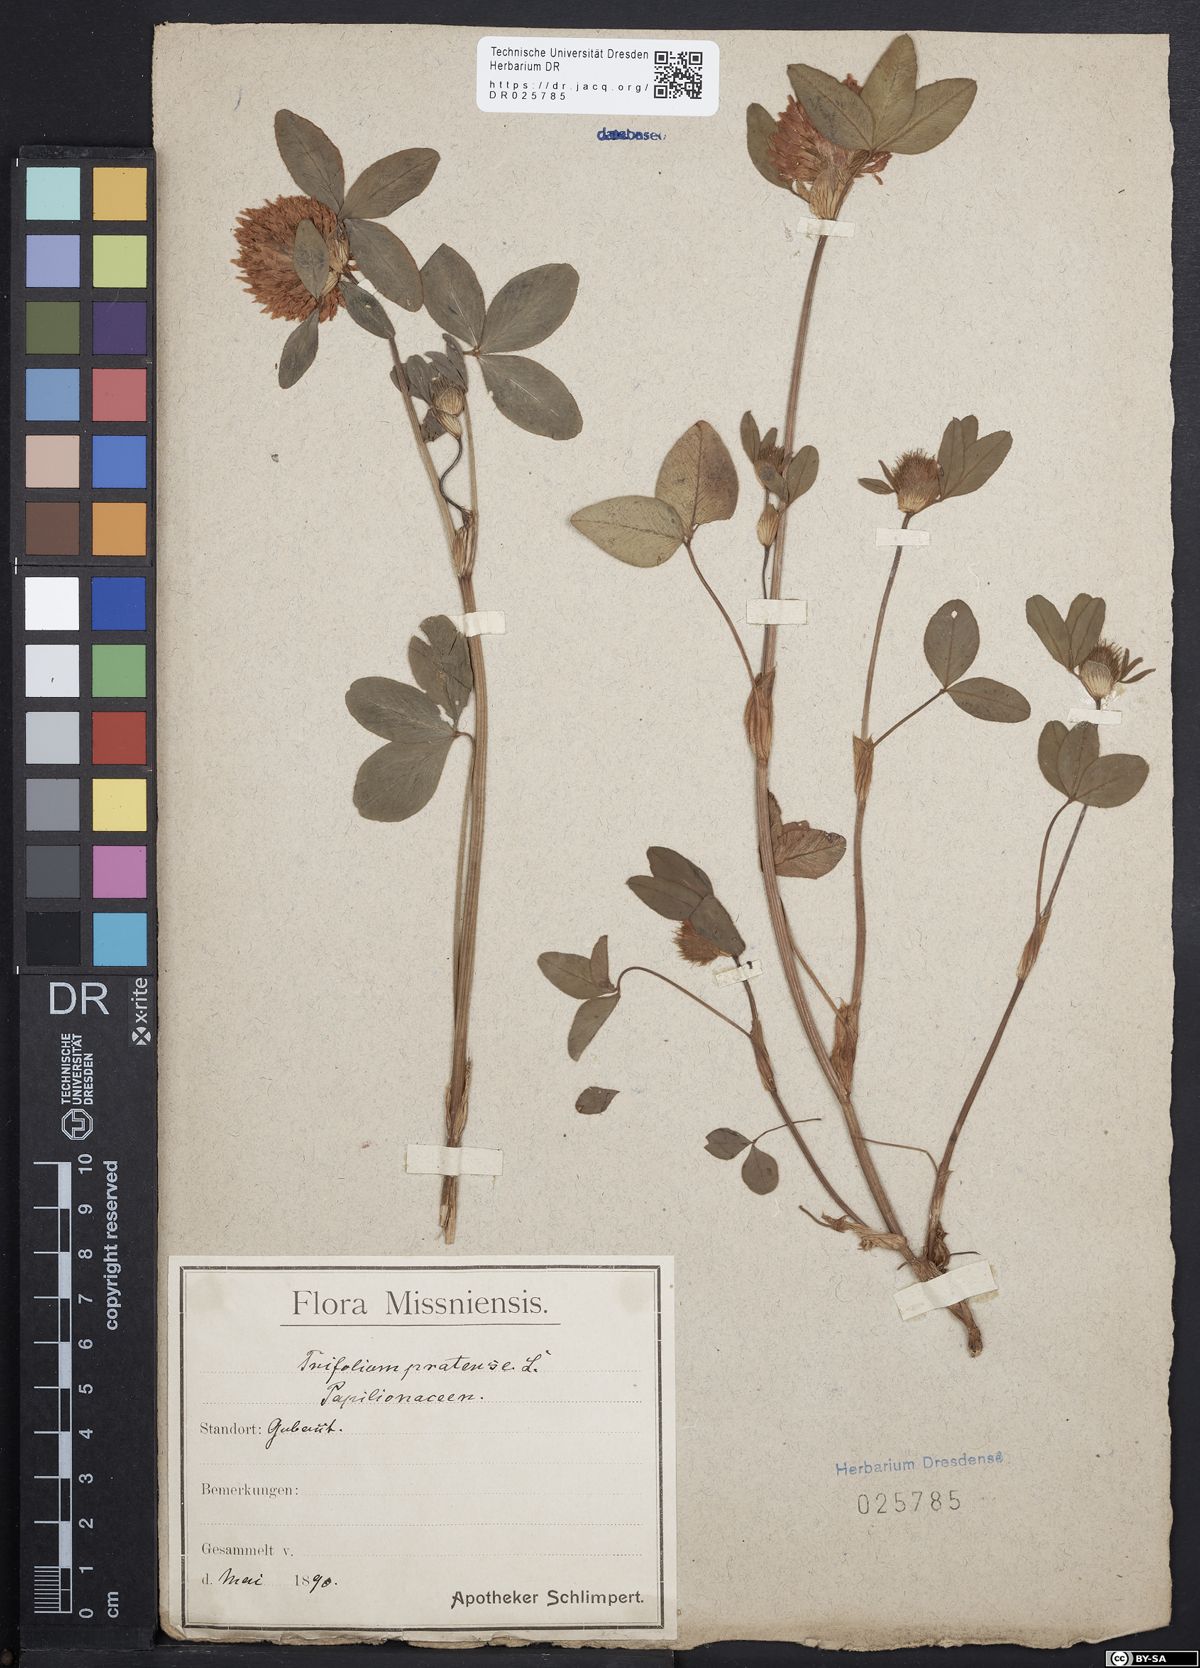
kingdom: Plantae
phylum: Tracheophyta
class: Magnoliopsida
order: Fabales
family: Fabaceae
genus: Trifolium
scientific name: Trifolium pratense
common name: Red clover
